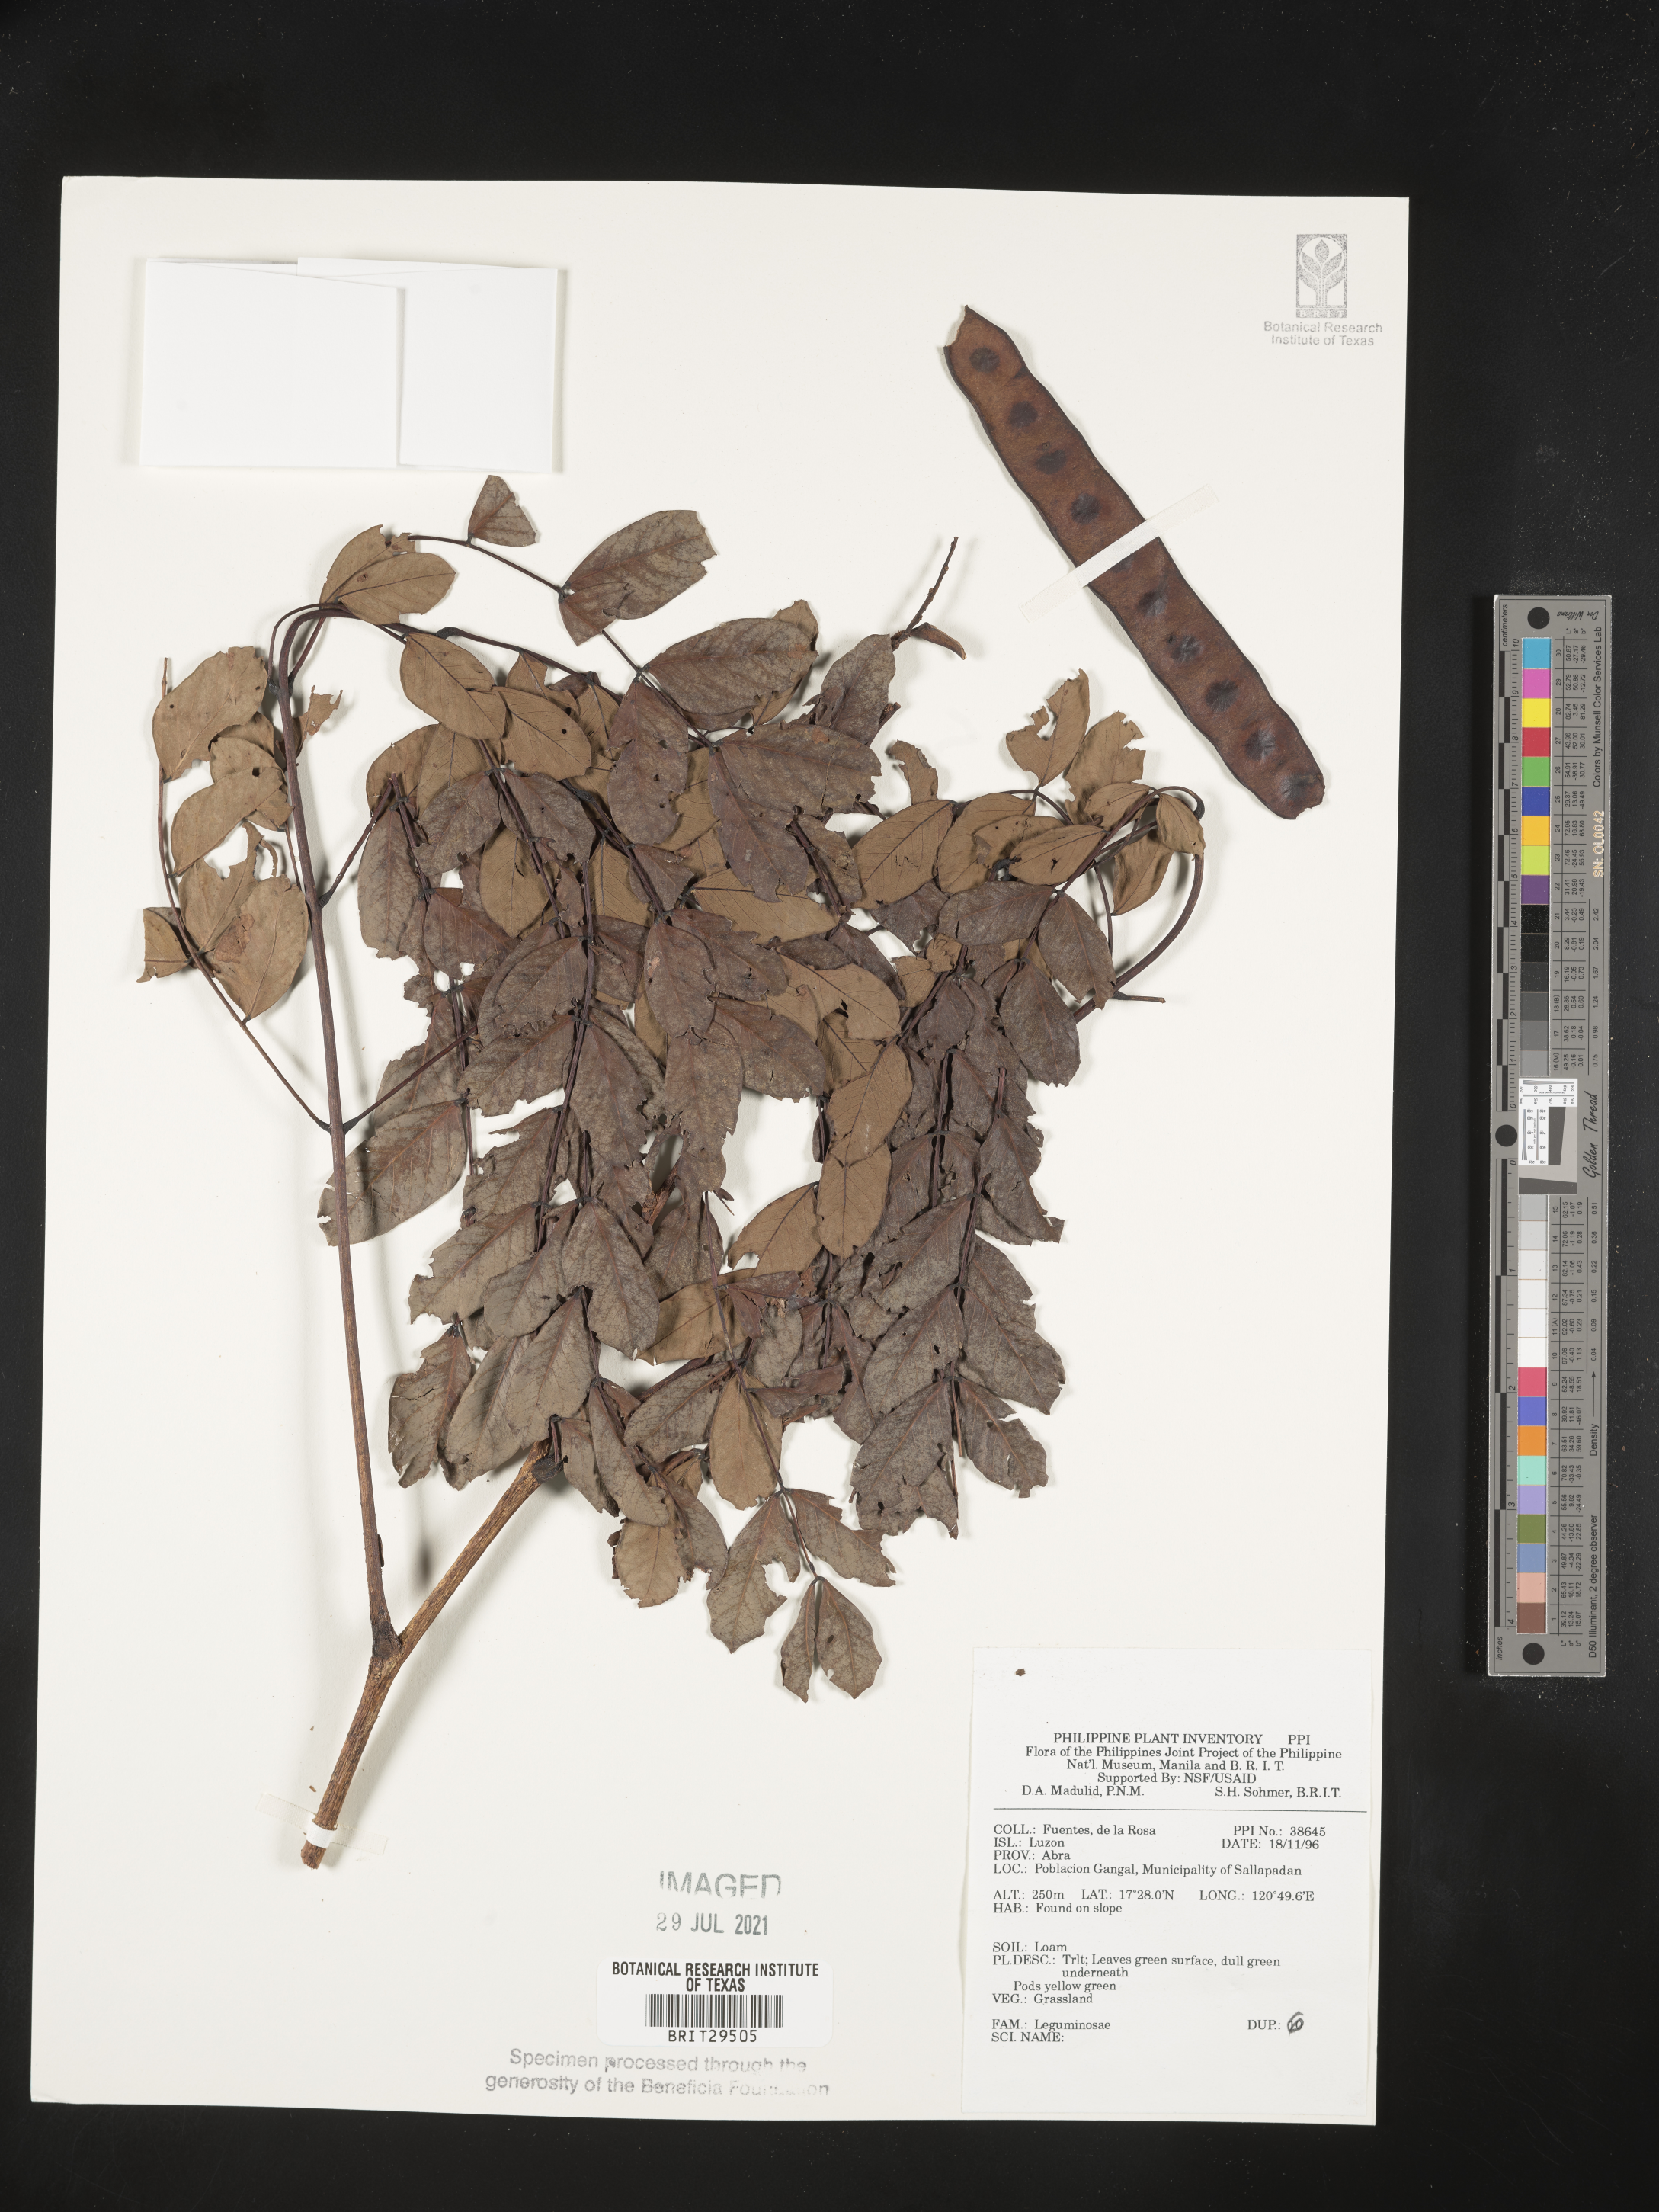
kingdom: Plantae
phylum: Tracheophyta
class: Magnoliopsida
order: Fabales
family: Fabaceae
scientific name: Fabaceae
